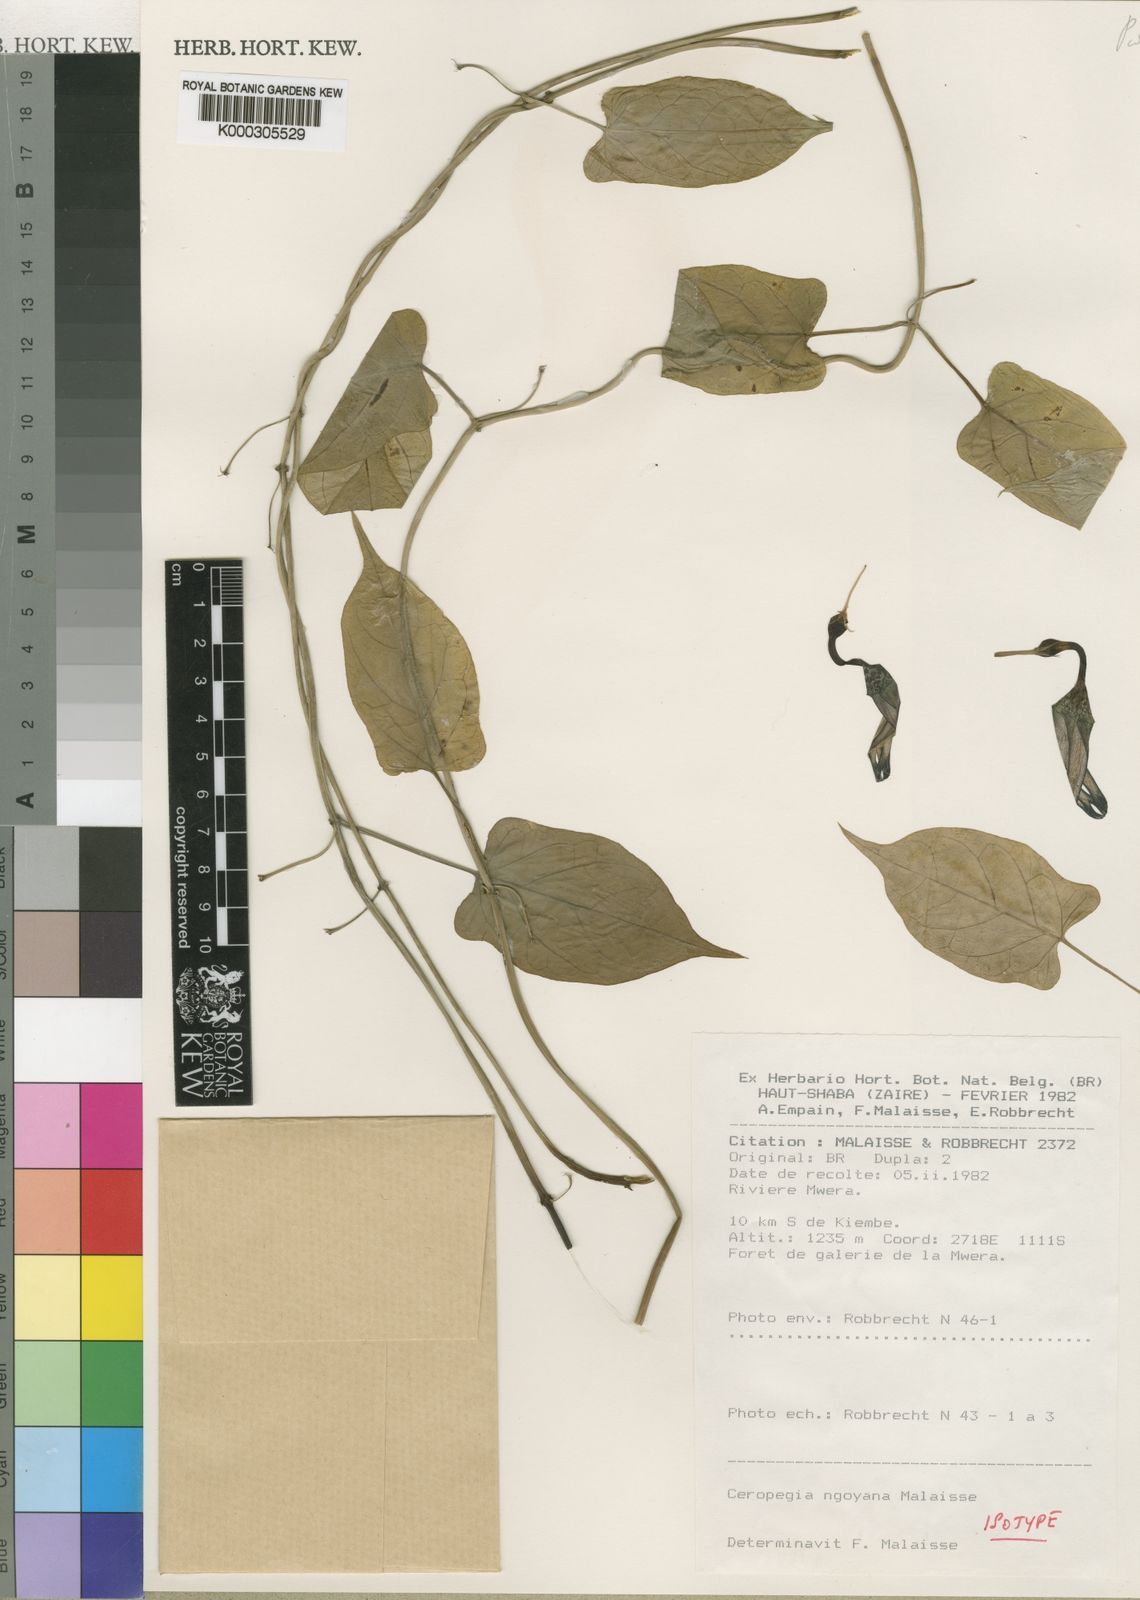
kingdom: Plantae
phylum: Tracheophyta
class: Magnoliopsida
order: Gentianales
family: Apocynaceae
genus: Ceropegia
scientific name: Ceropegia ngoyana
